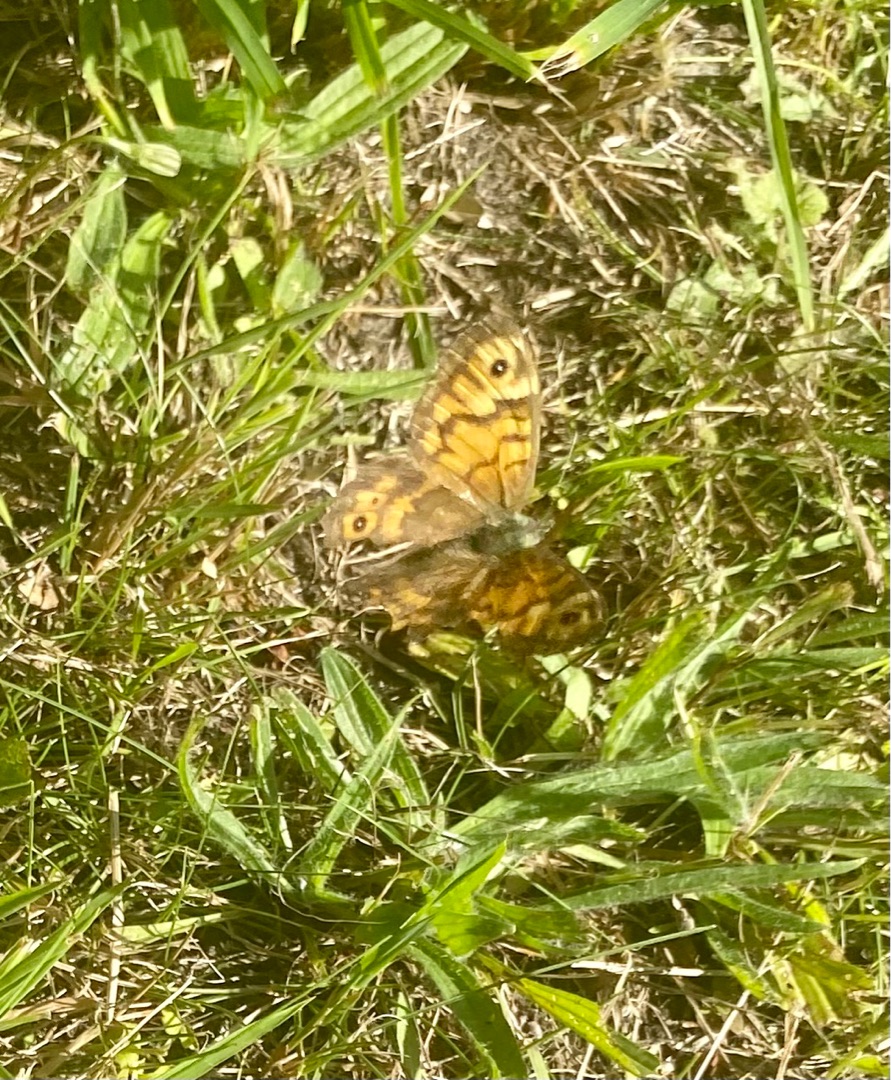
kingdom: Animalia
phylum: Arthropoda
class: Insecta
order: Lepidoptera
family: Nymphalidae
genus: Pararge
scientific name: Pararge Lasiommata megera
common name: Vejrandøje
